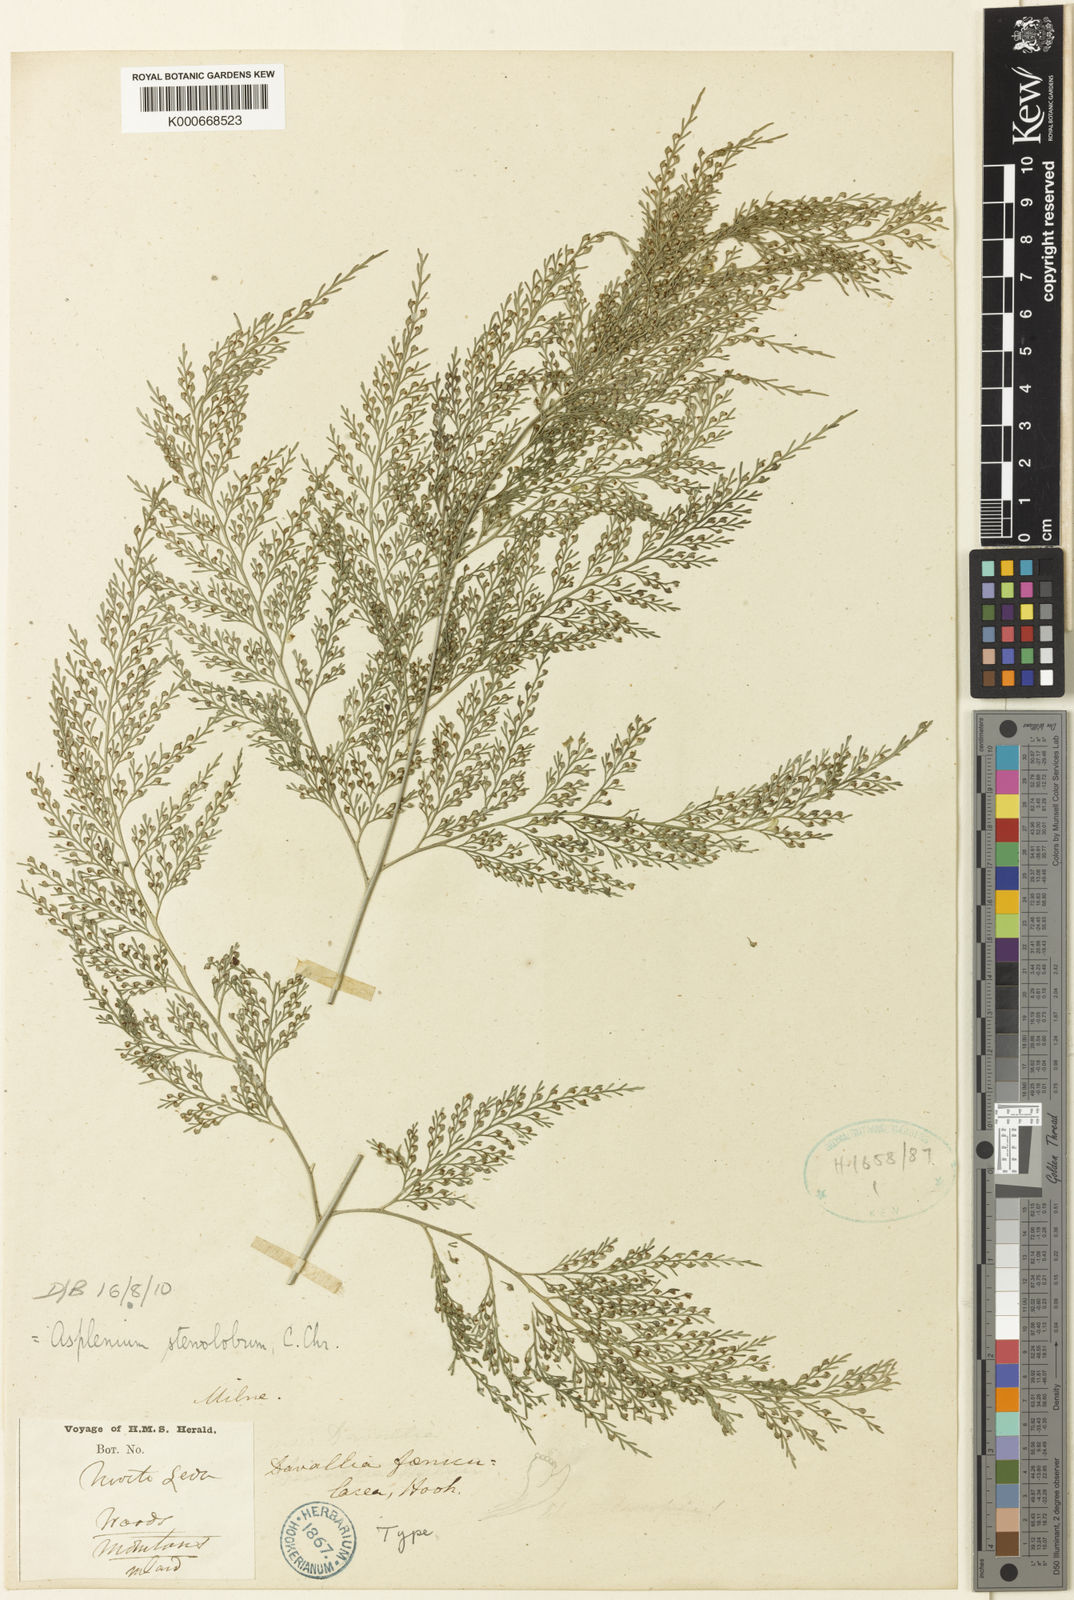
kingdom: Plantae
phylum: Tracheophyta
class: Polypodiopsida
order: Polypodiales
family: Aspleniaceae
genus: Asplenium
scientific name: Asplenium stenolobum
